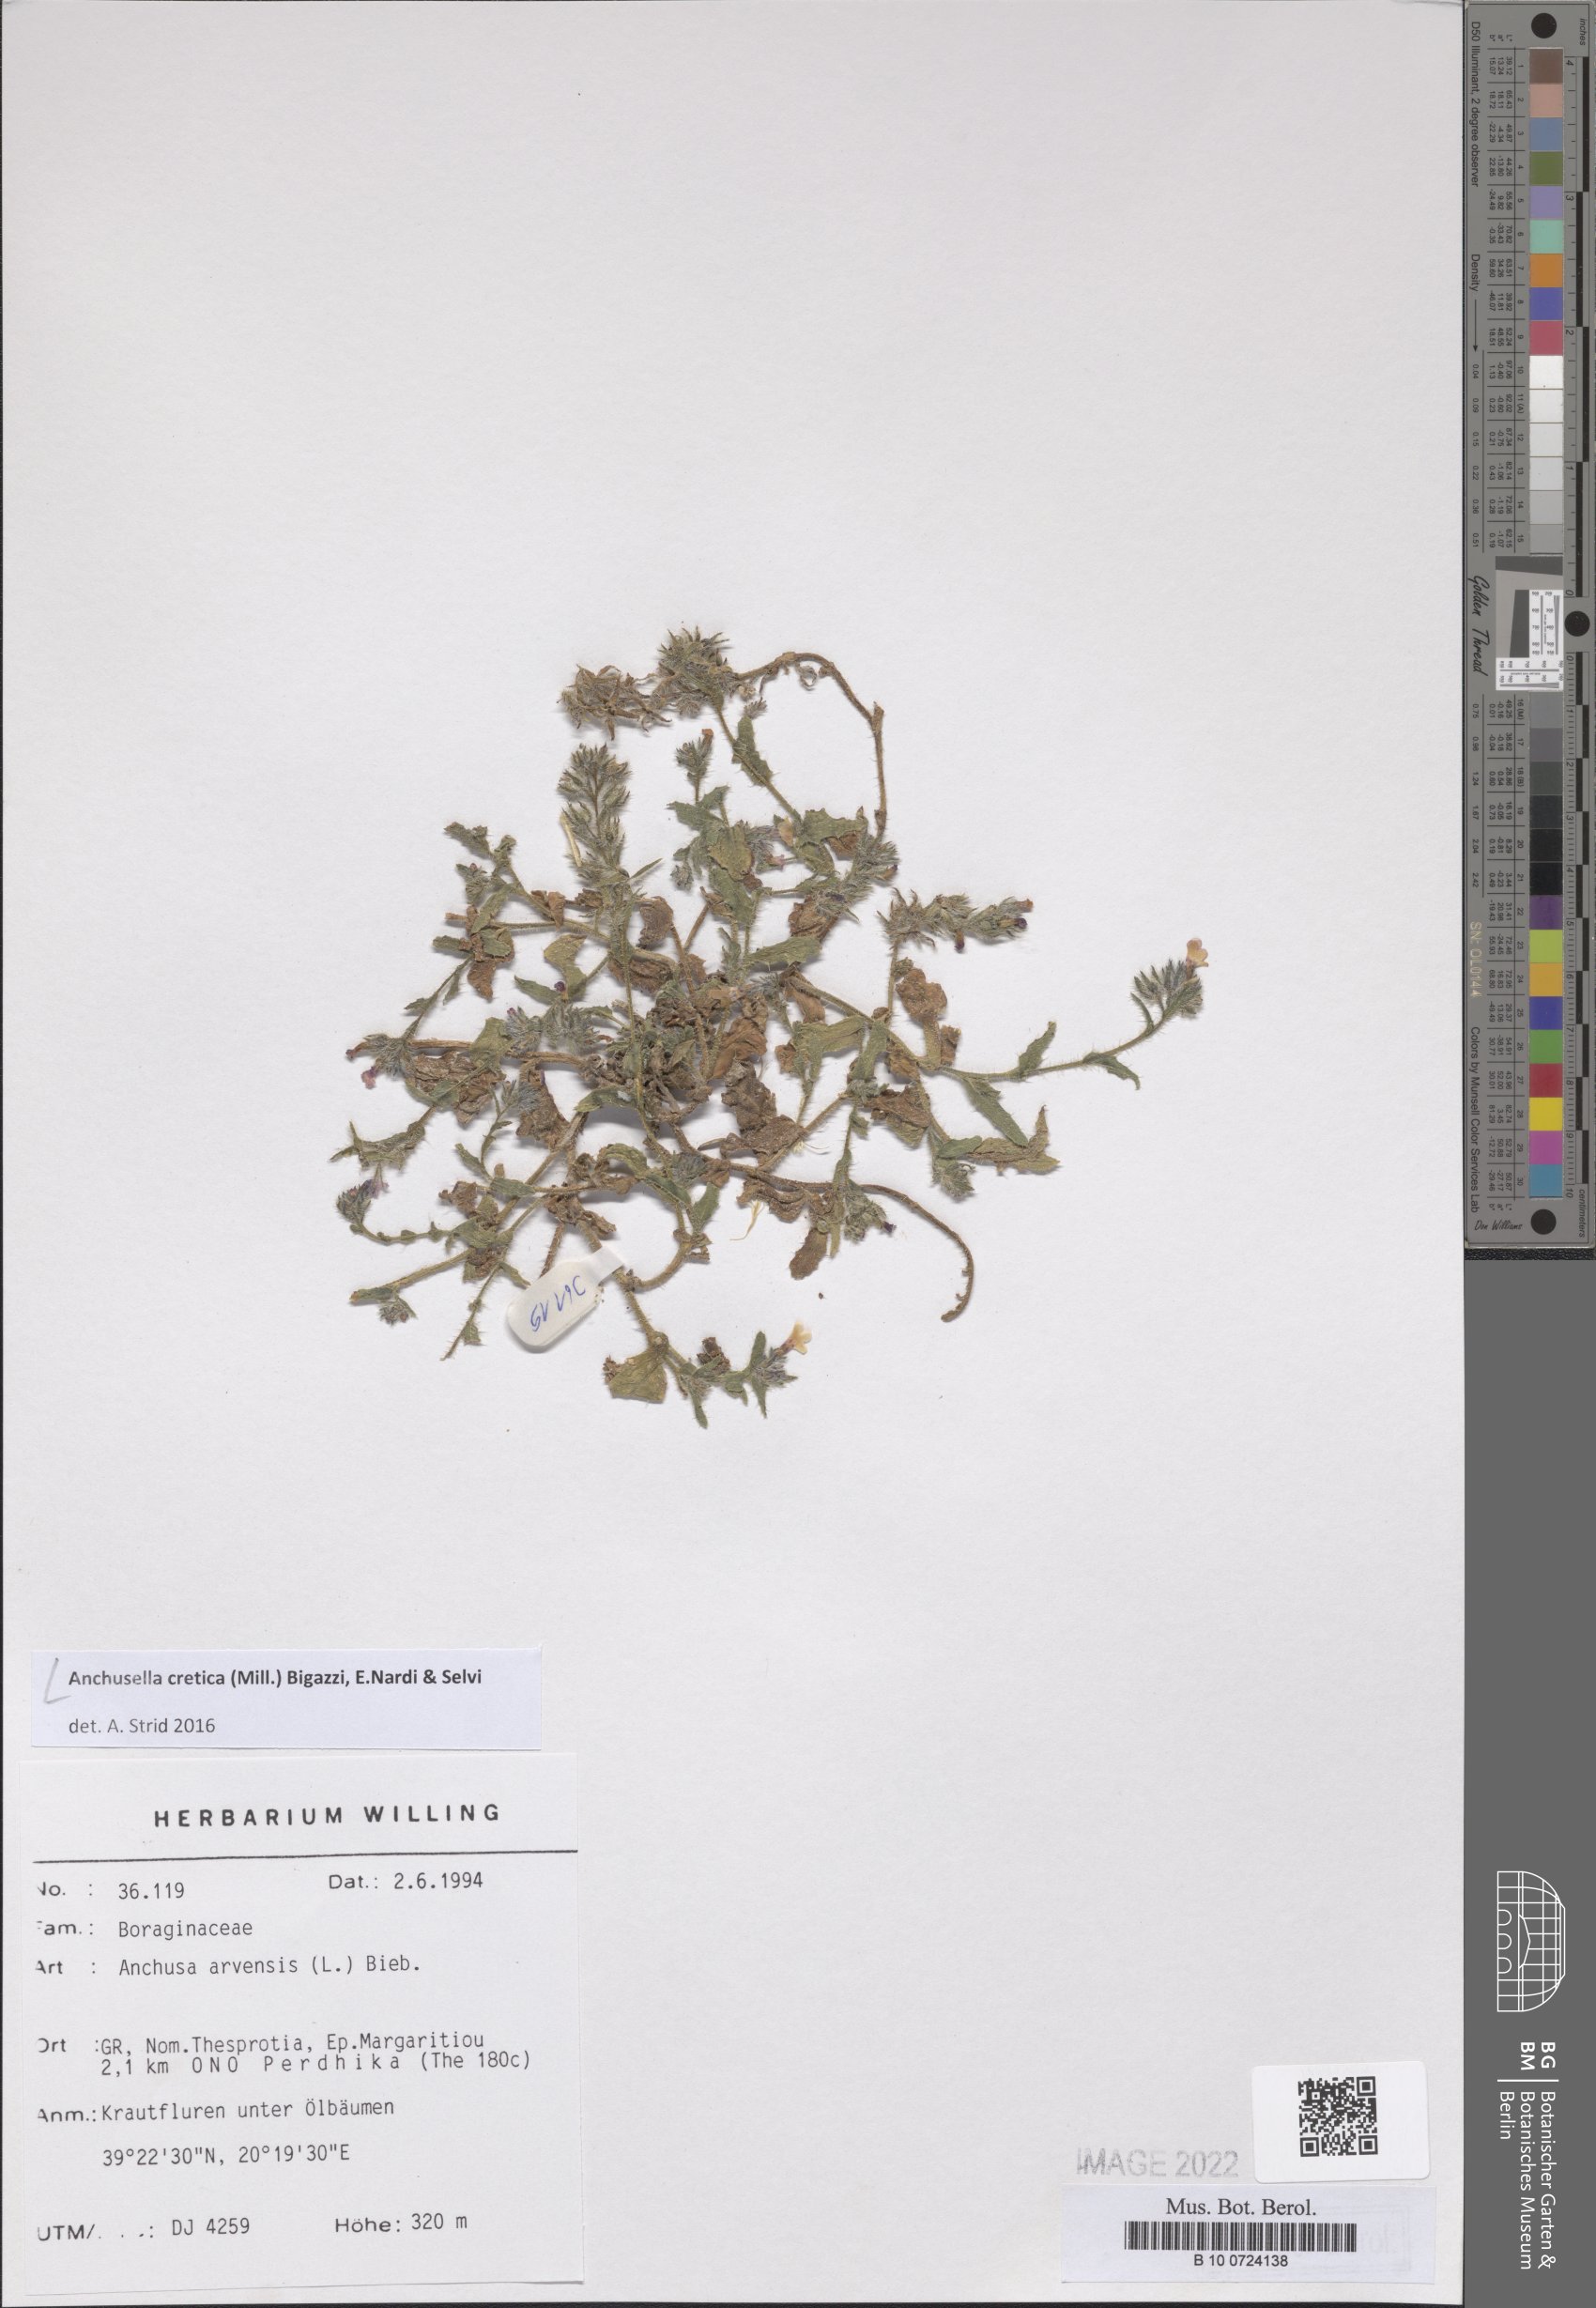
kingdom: Plantae
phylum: Tracheophyta
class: Magnoliopsida
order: Boraginales
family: Boraginaceae
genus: Anchusella
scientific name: Anchusella cretica
